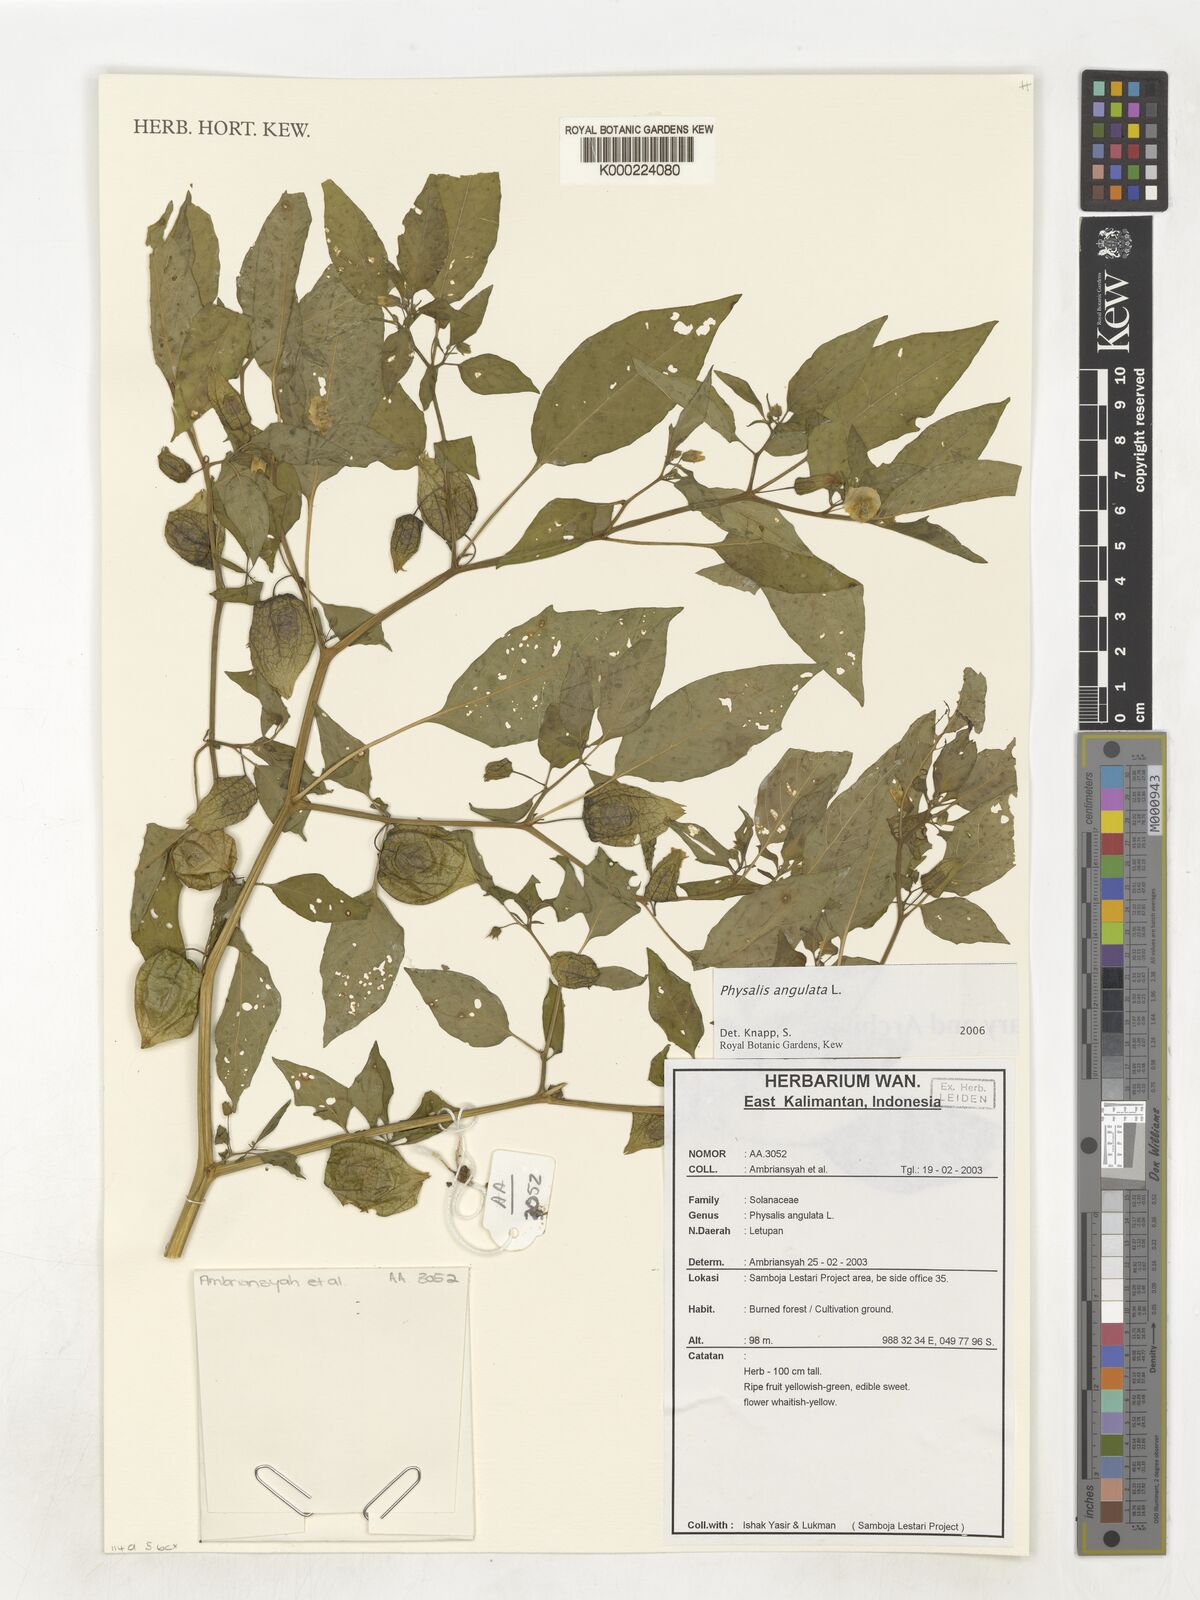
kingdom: Plantae
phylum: Tracheophyta
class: Magnoliopsida
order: Solanales
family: Solanaceae
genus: Physalis
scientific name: Physalis angulata
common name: Angular winter-cherry
